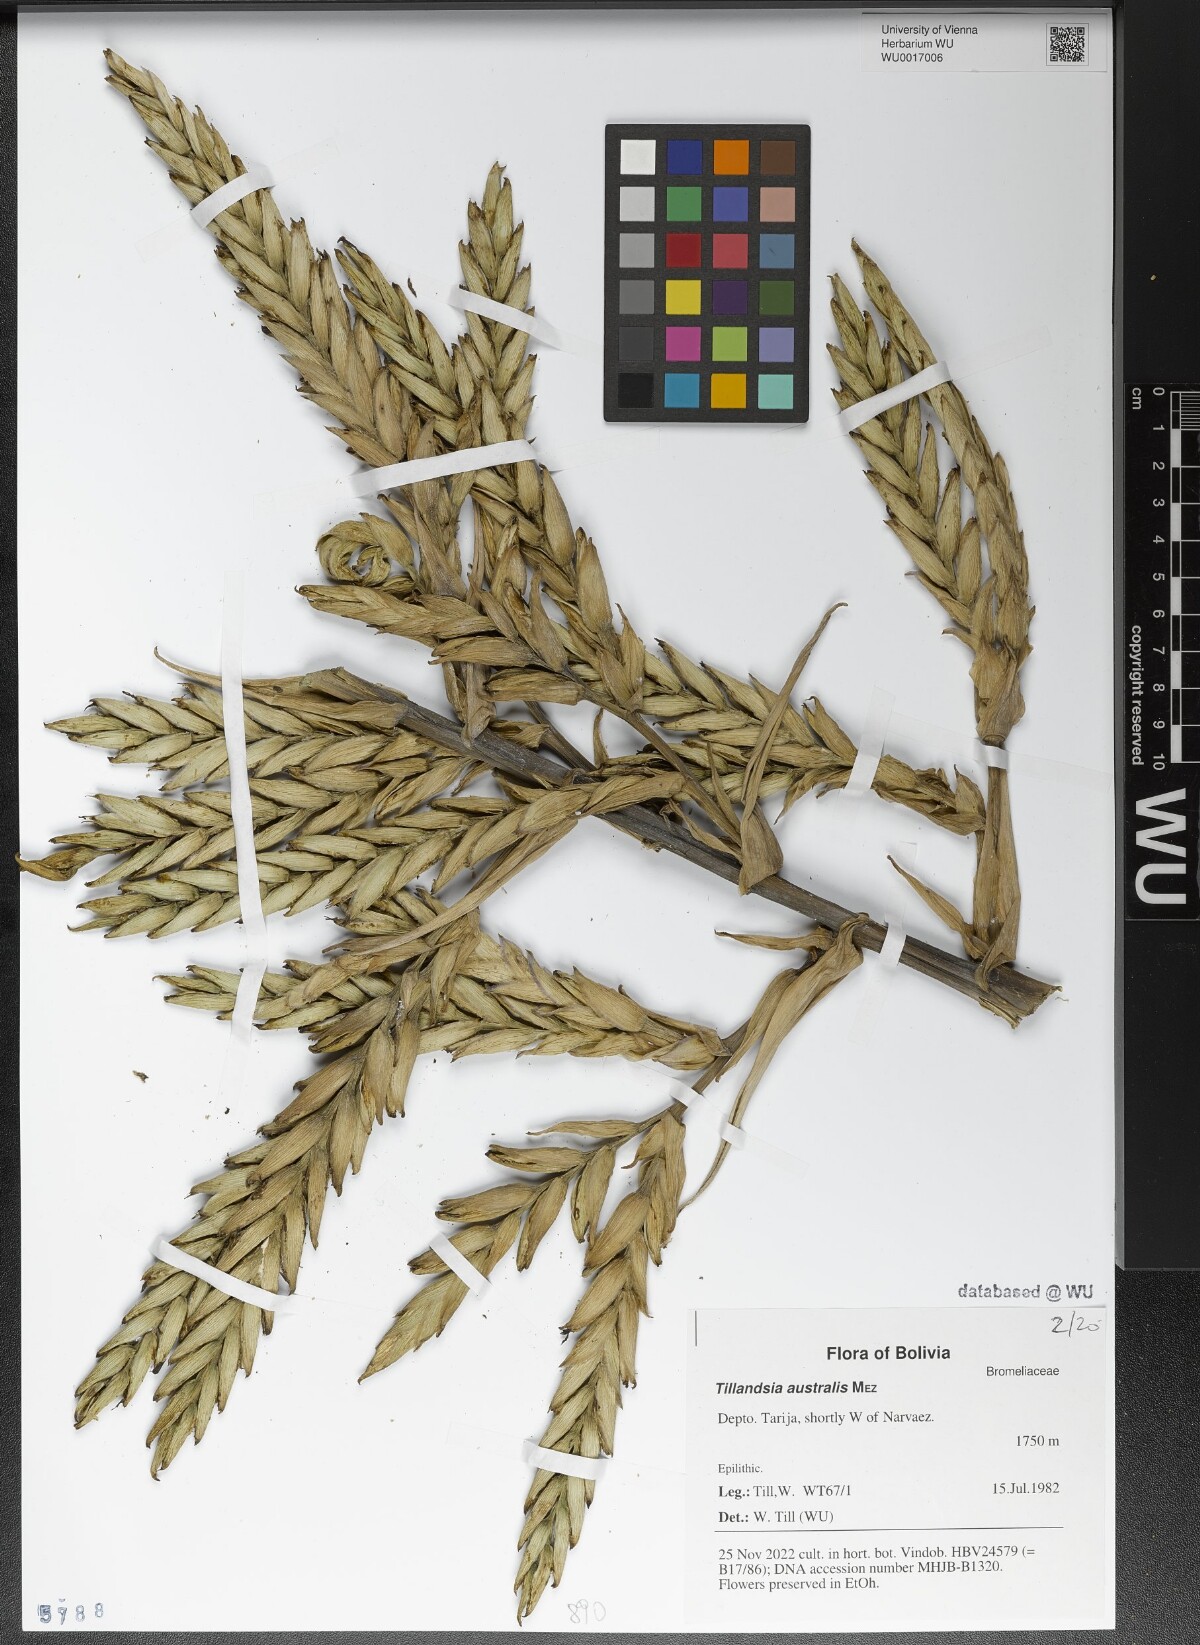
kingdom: Plantae
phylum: Tracheophyta
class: Liliopsida
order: Poales
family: Bromeliaceae
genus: Tillandsia
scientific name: Tillandsia australis
